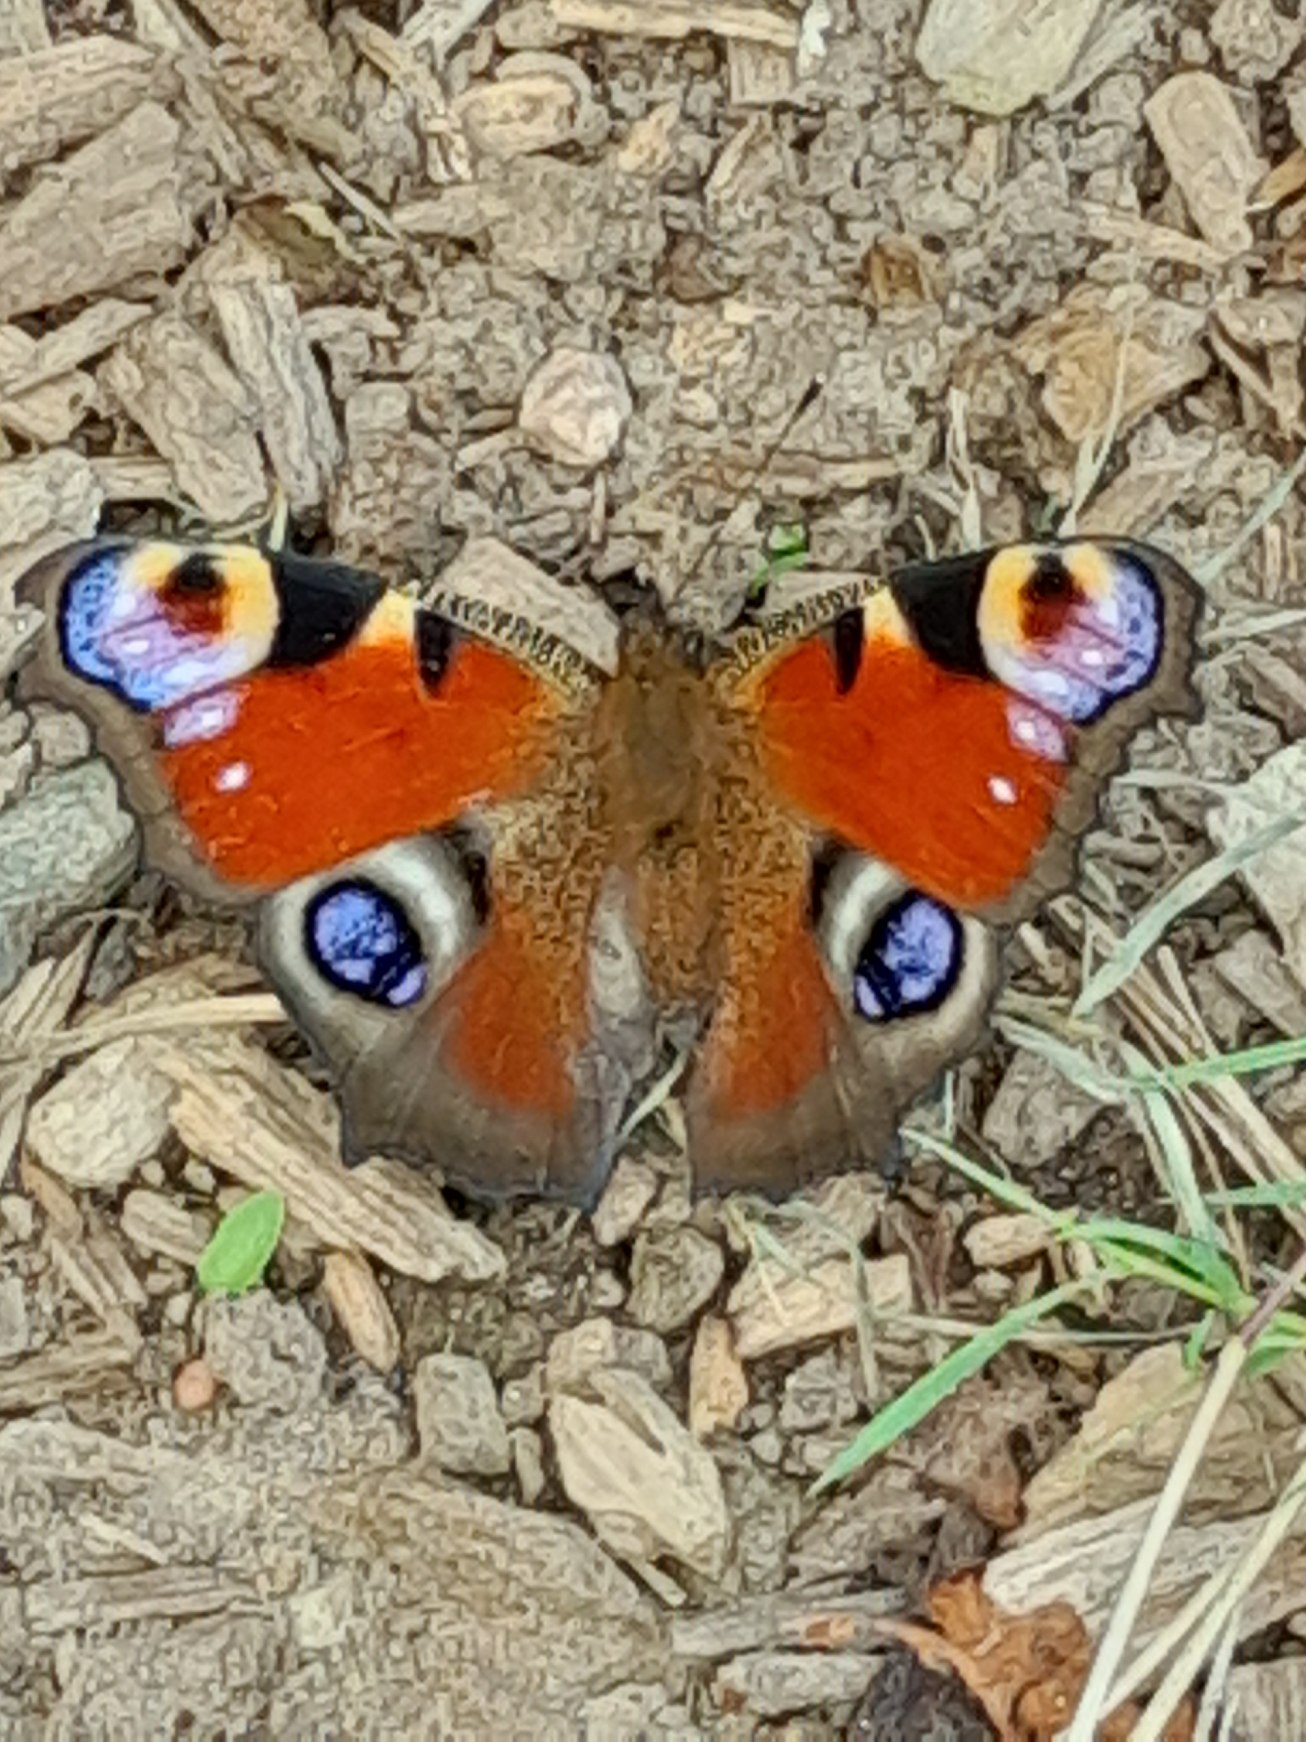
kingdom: Animalia
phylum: Arthropoda
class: Insecta
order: Lepidoptera
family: Nymphalidae
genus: Aglais
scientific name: Aglais io
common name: Dagpåfugleøje
